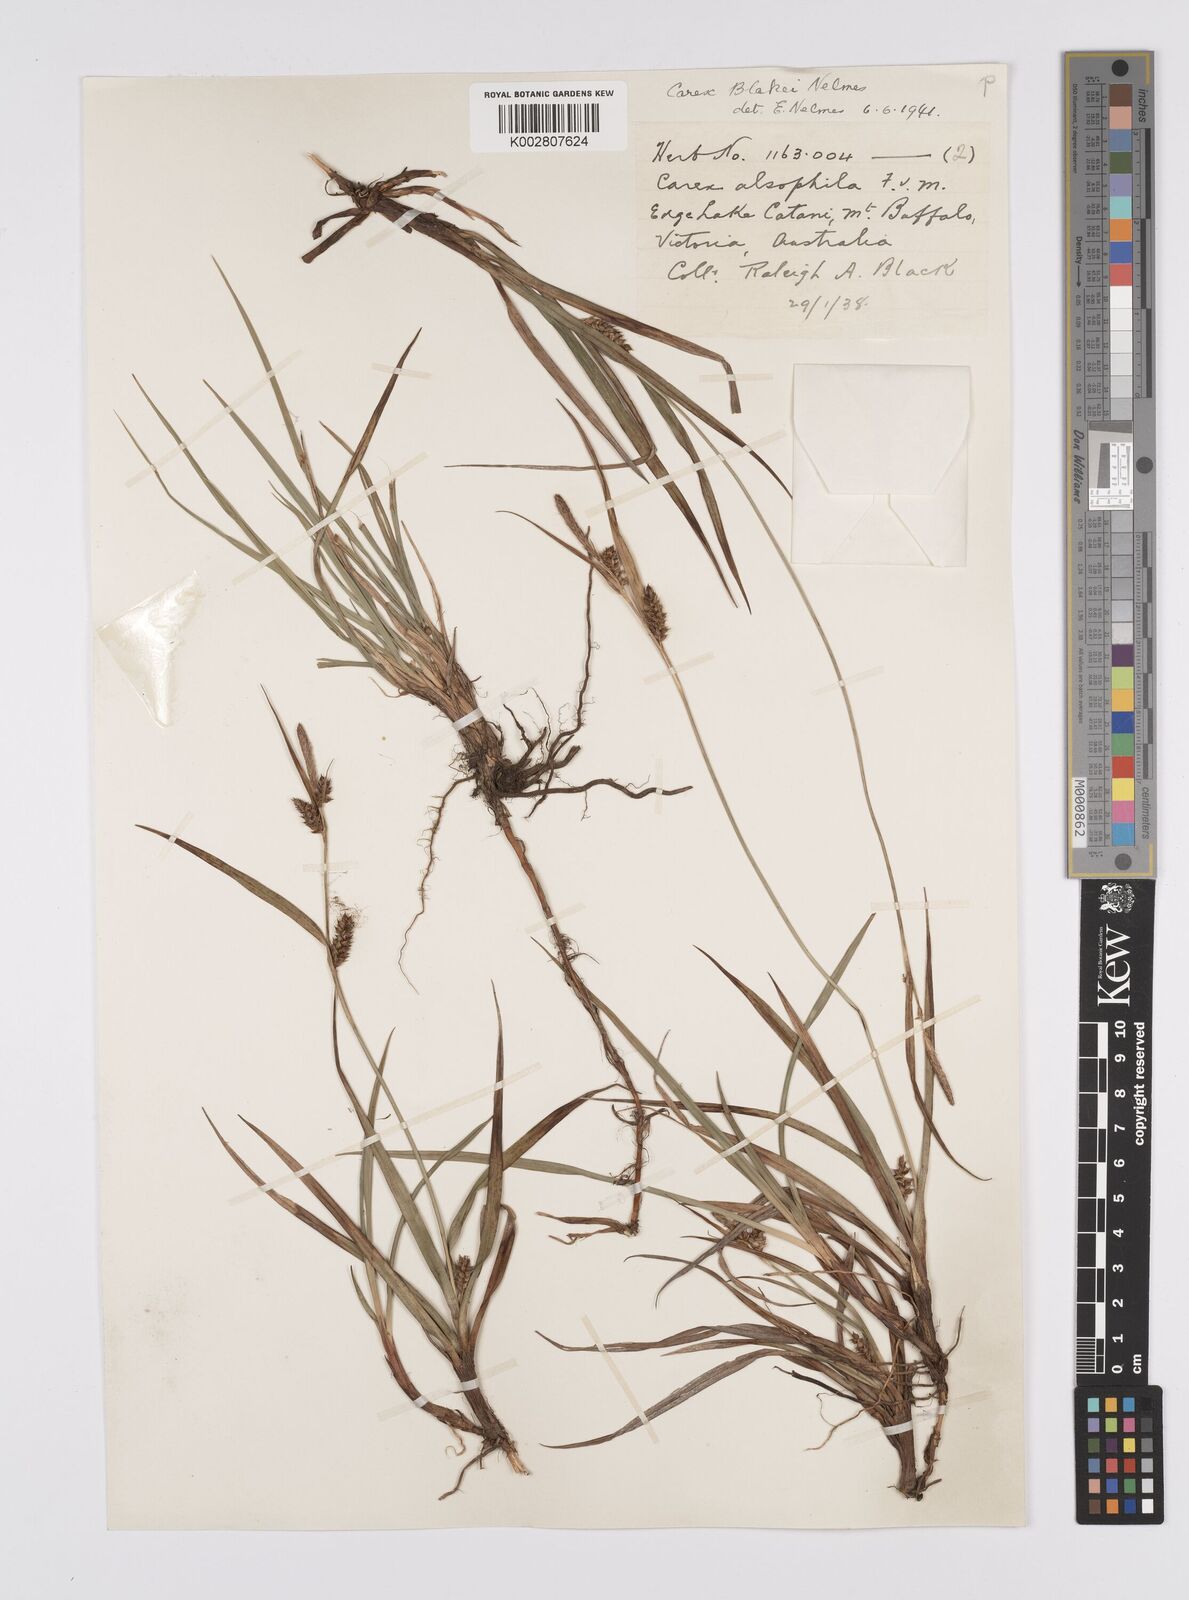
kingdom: Plantae
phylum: Tracheophyta
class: Liliopsida
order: Poales
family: Cyperaceae
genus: Carex
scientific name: Carex blakei
